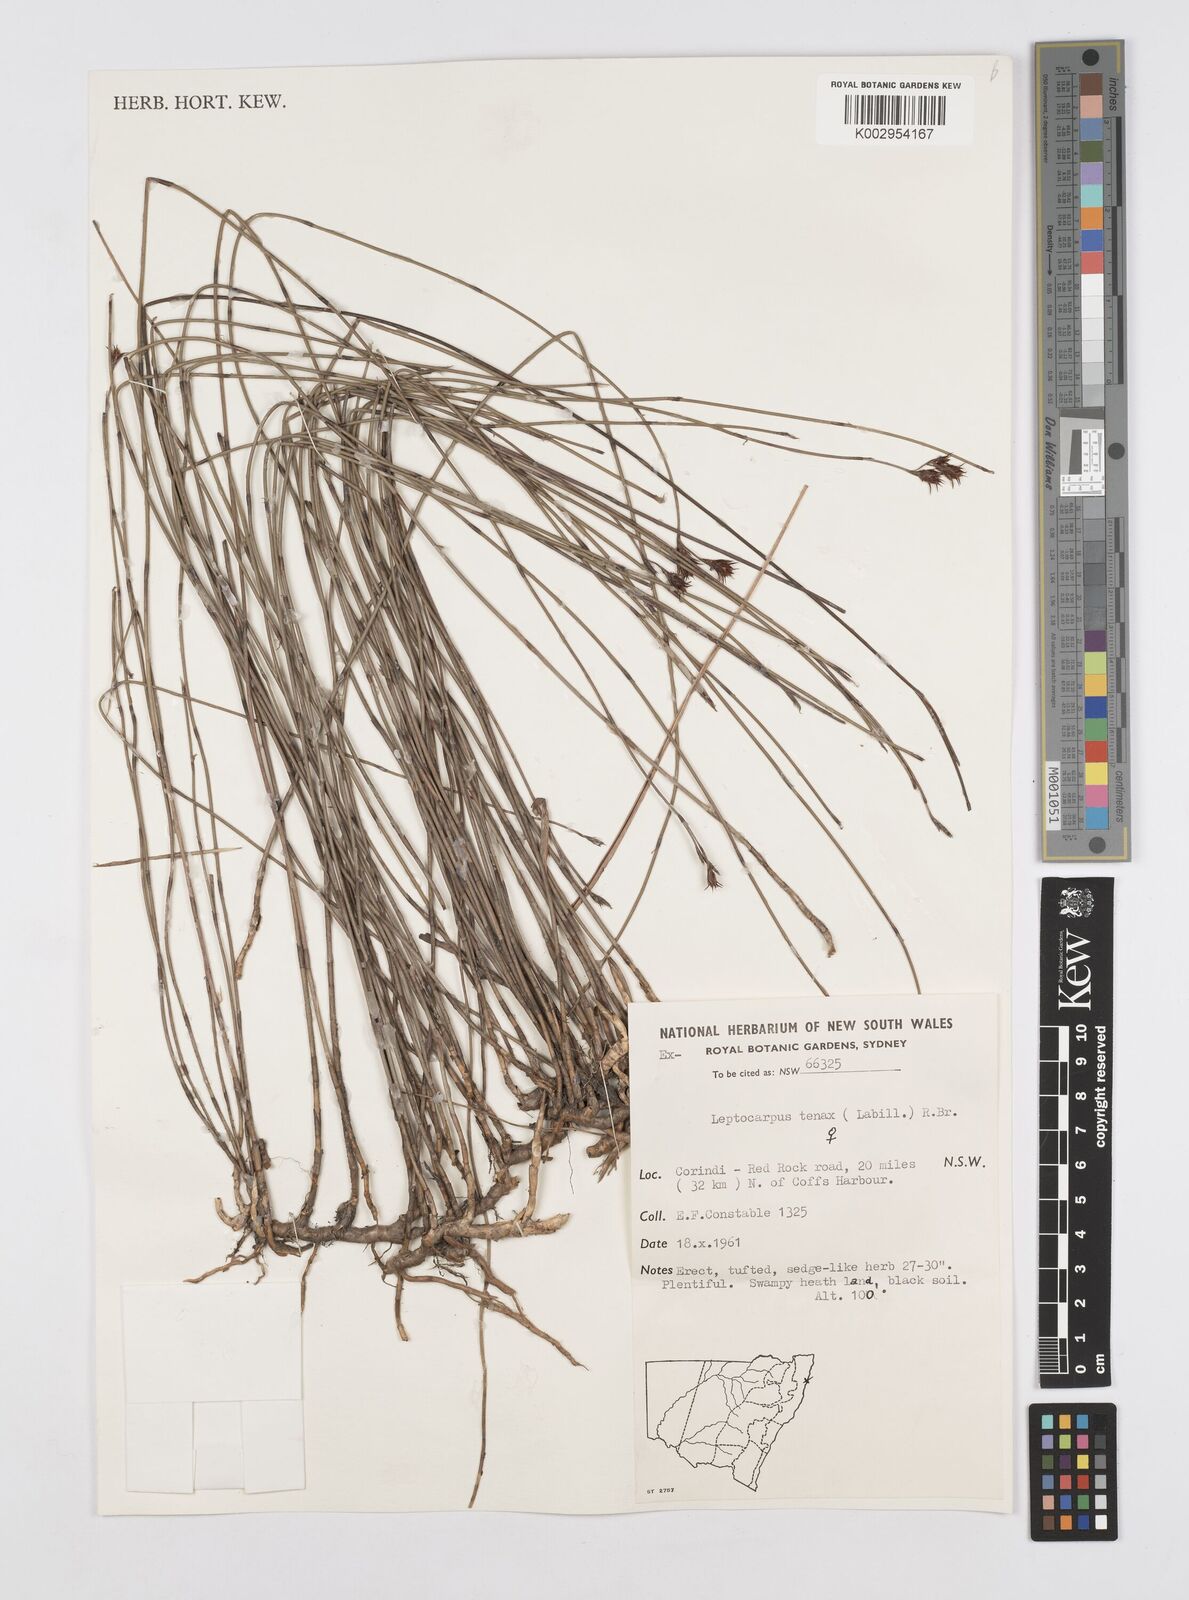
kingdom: Plantae
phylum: Tracheophyta
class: Liliopsida
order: Poales
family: Restionaceae
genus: Leptocarpus
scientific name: Leptocarpus tenax
